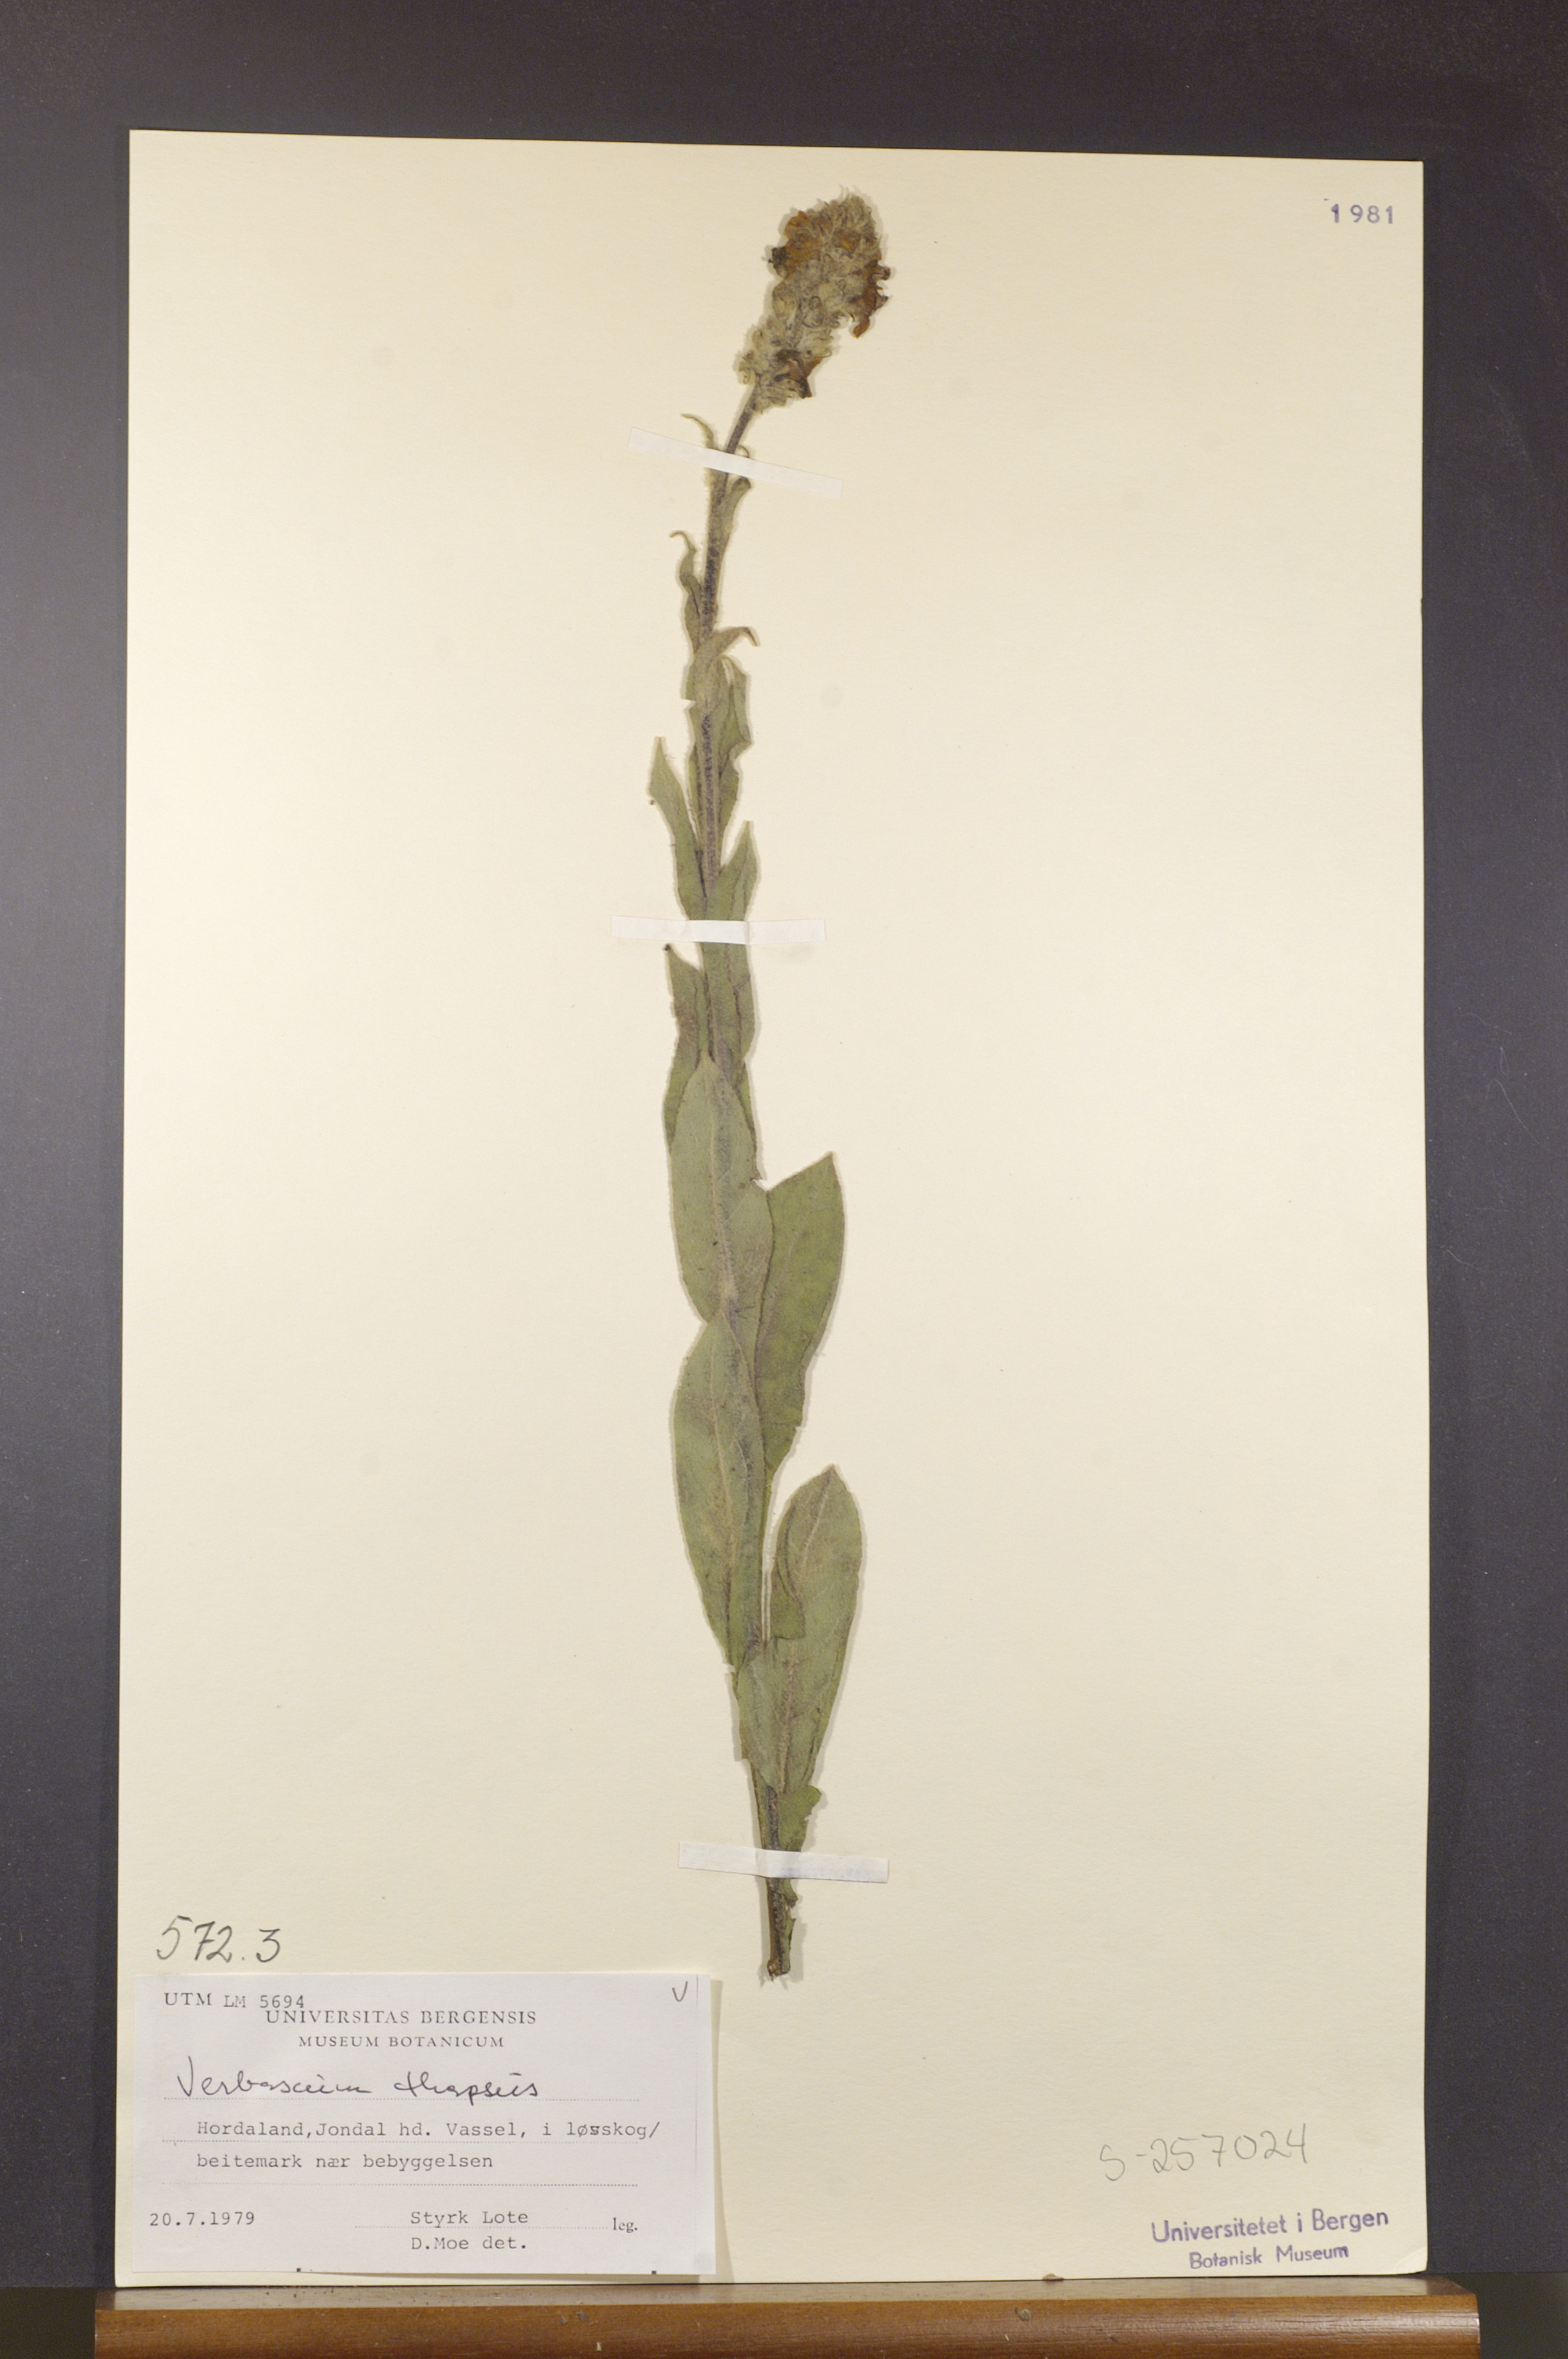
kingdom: Plantae
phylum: Tracheophyta
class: Magnoliopsida
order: Lamiales
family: Scrophulariaceae
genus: Verbascum
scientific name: Verbascum thapsus
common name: Common mullein
